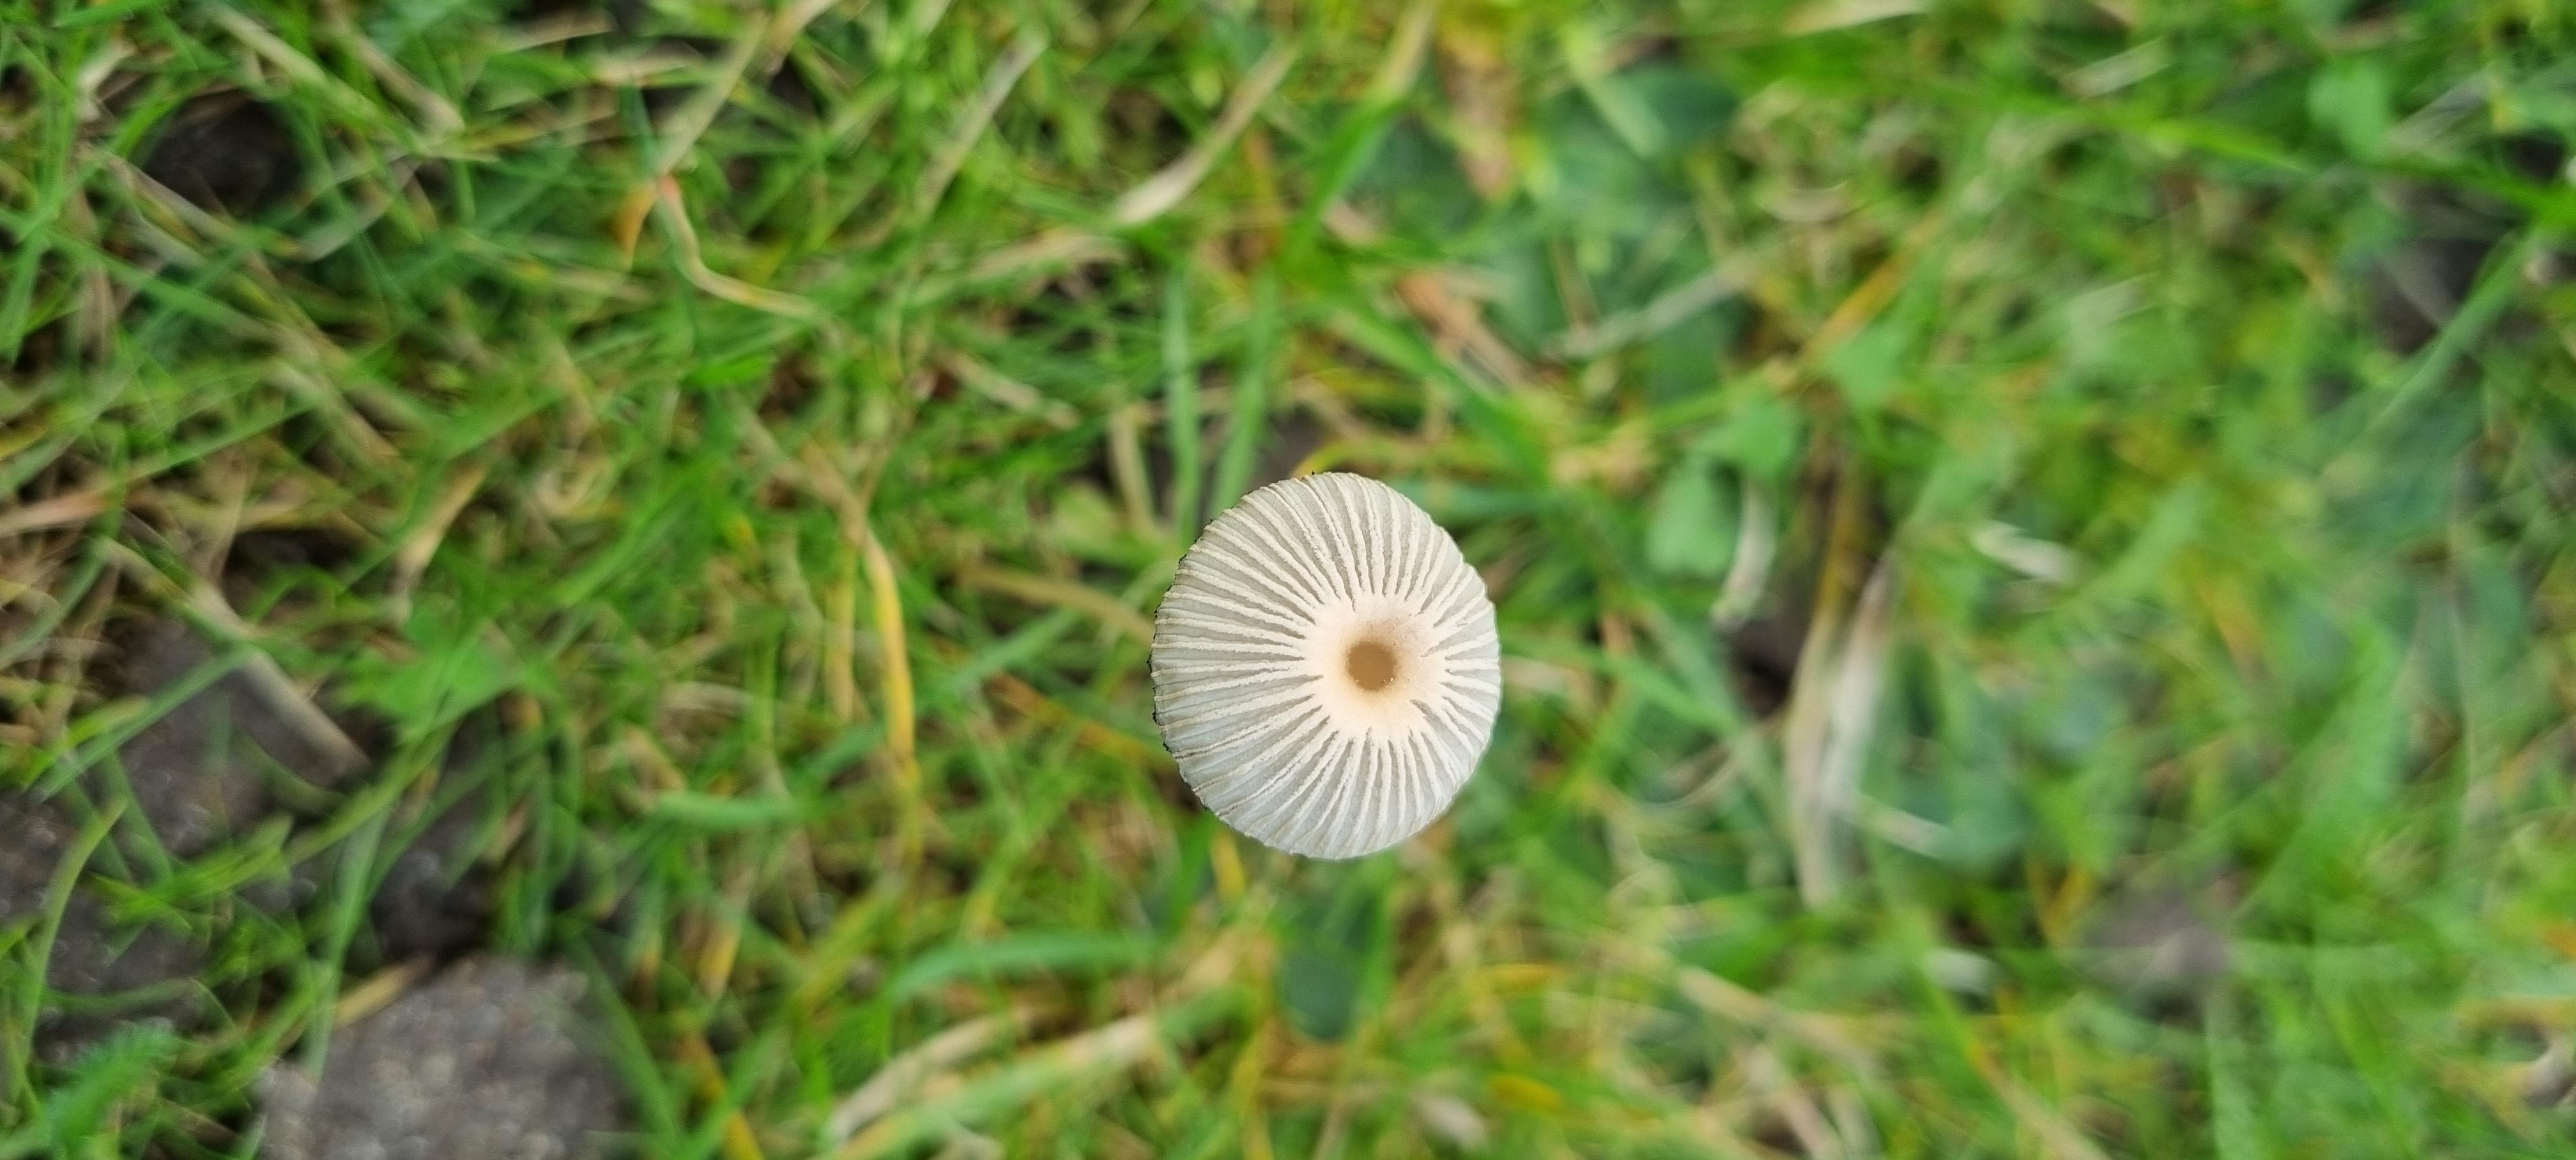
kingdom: Fungi
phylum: Basidiomycota
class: Agaricomycetes
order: Agaricales
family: Psathyrellaceae
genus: Parasola
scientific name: Parasola
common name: hjulhat
